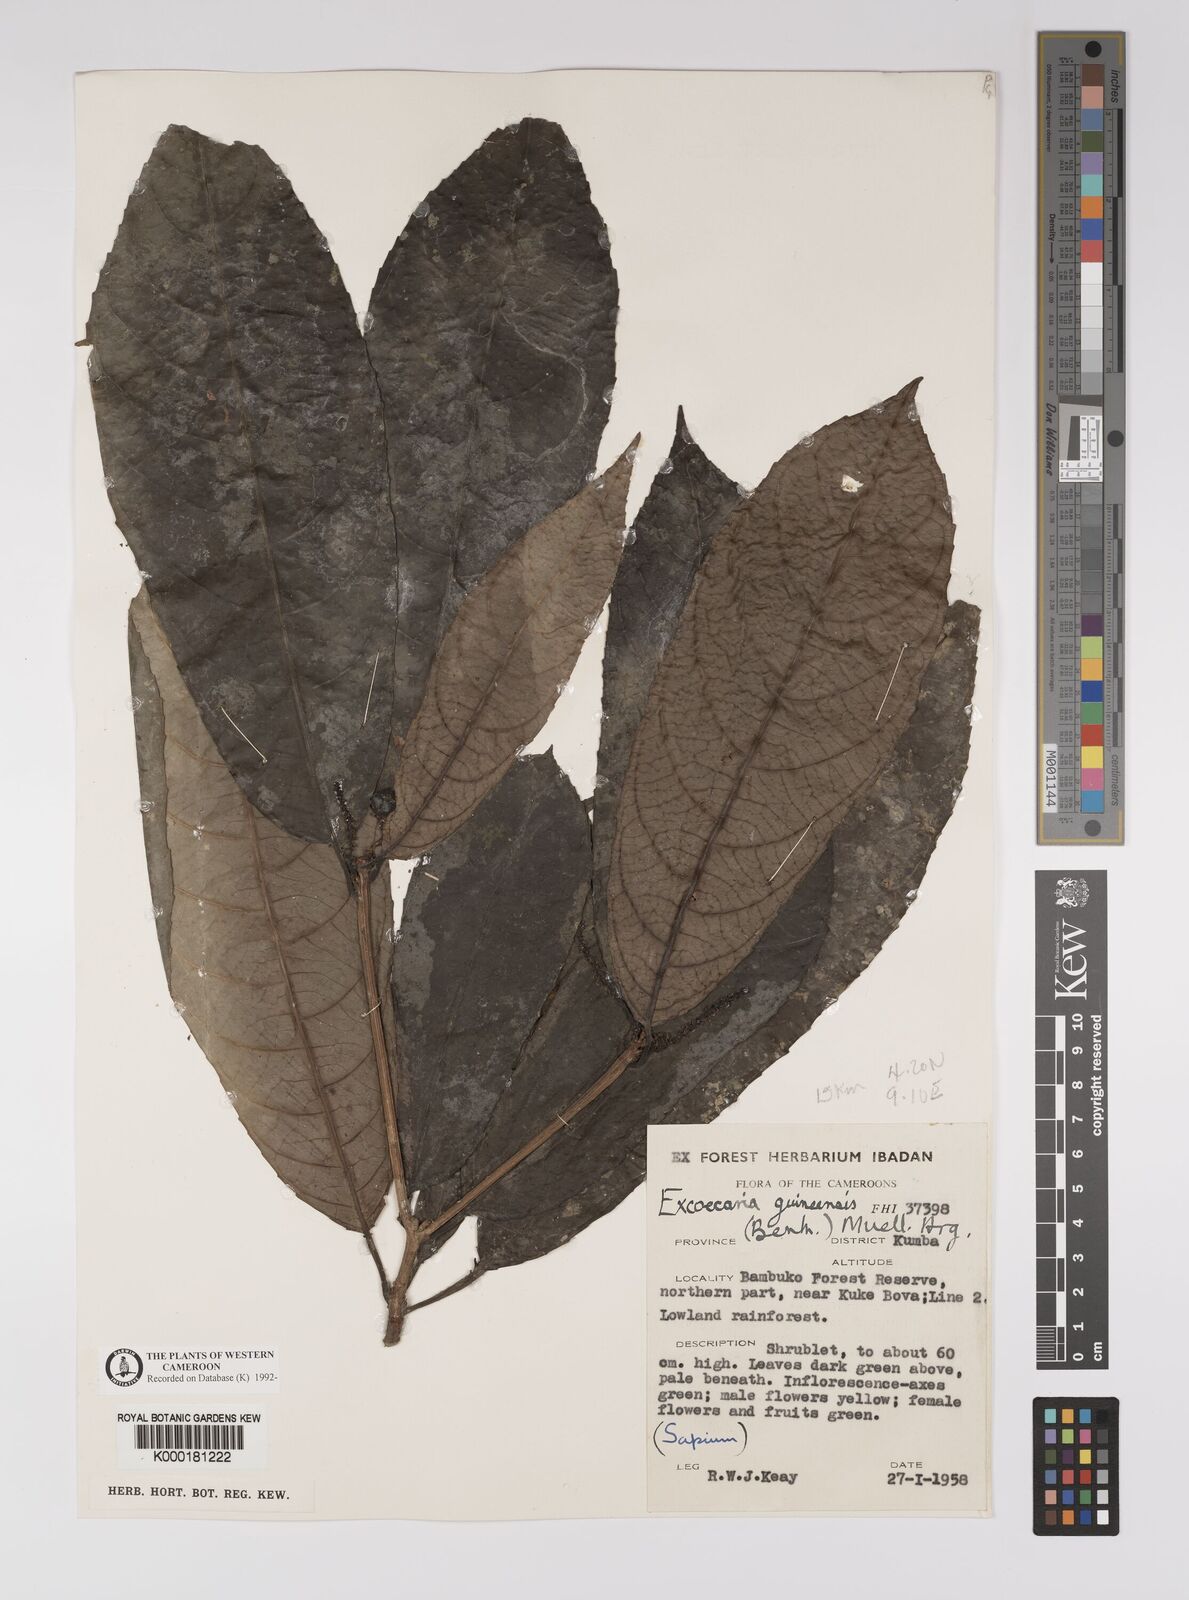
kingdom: Plantae
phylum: Tracheophyta
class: Magnoliopsida
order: Malpighiales
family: Euphorbiaceae
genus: Excoecaria
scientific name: Excoecaria
